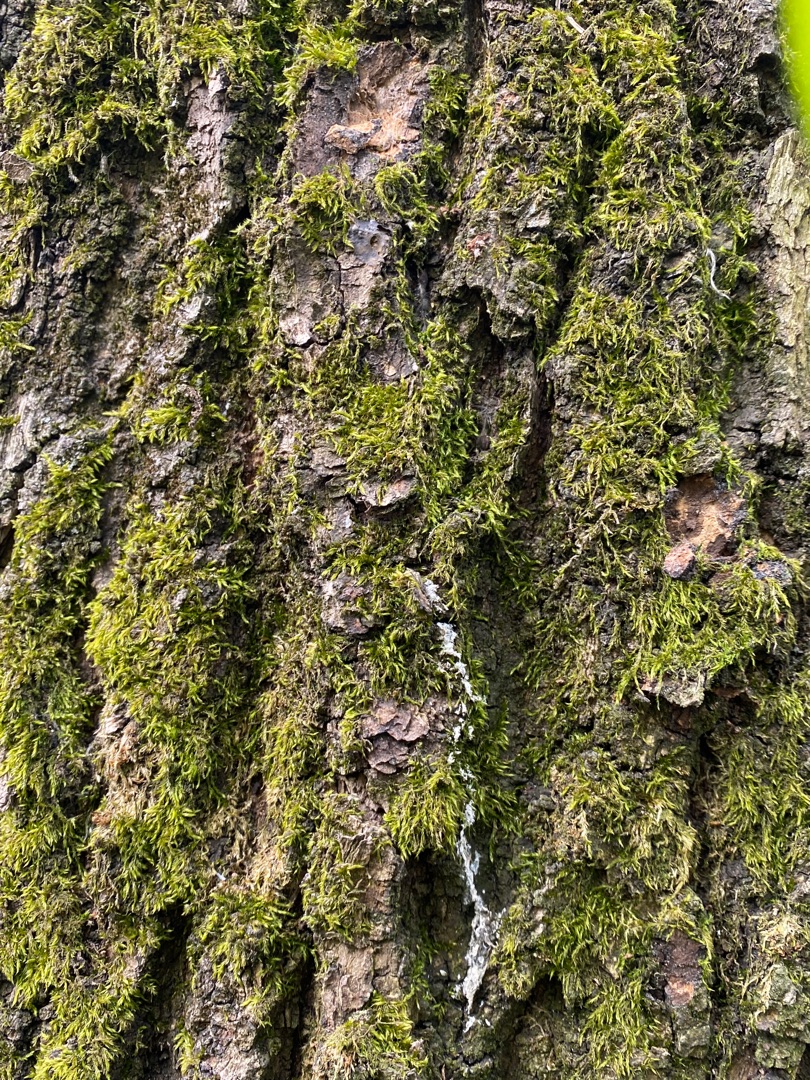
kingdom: Plantae
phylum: Bryophyta
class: Bryopsida
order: Hypnales
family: Hypnaceae
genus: Hypnum
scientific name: Hypnum
